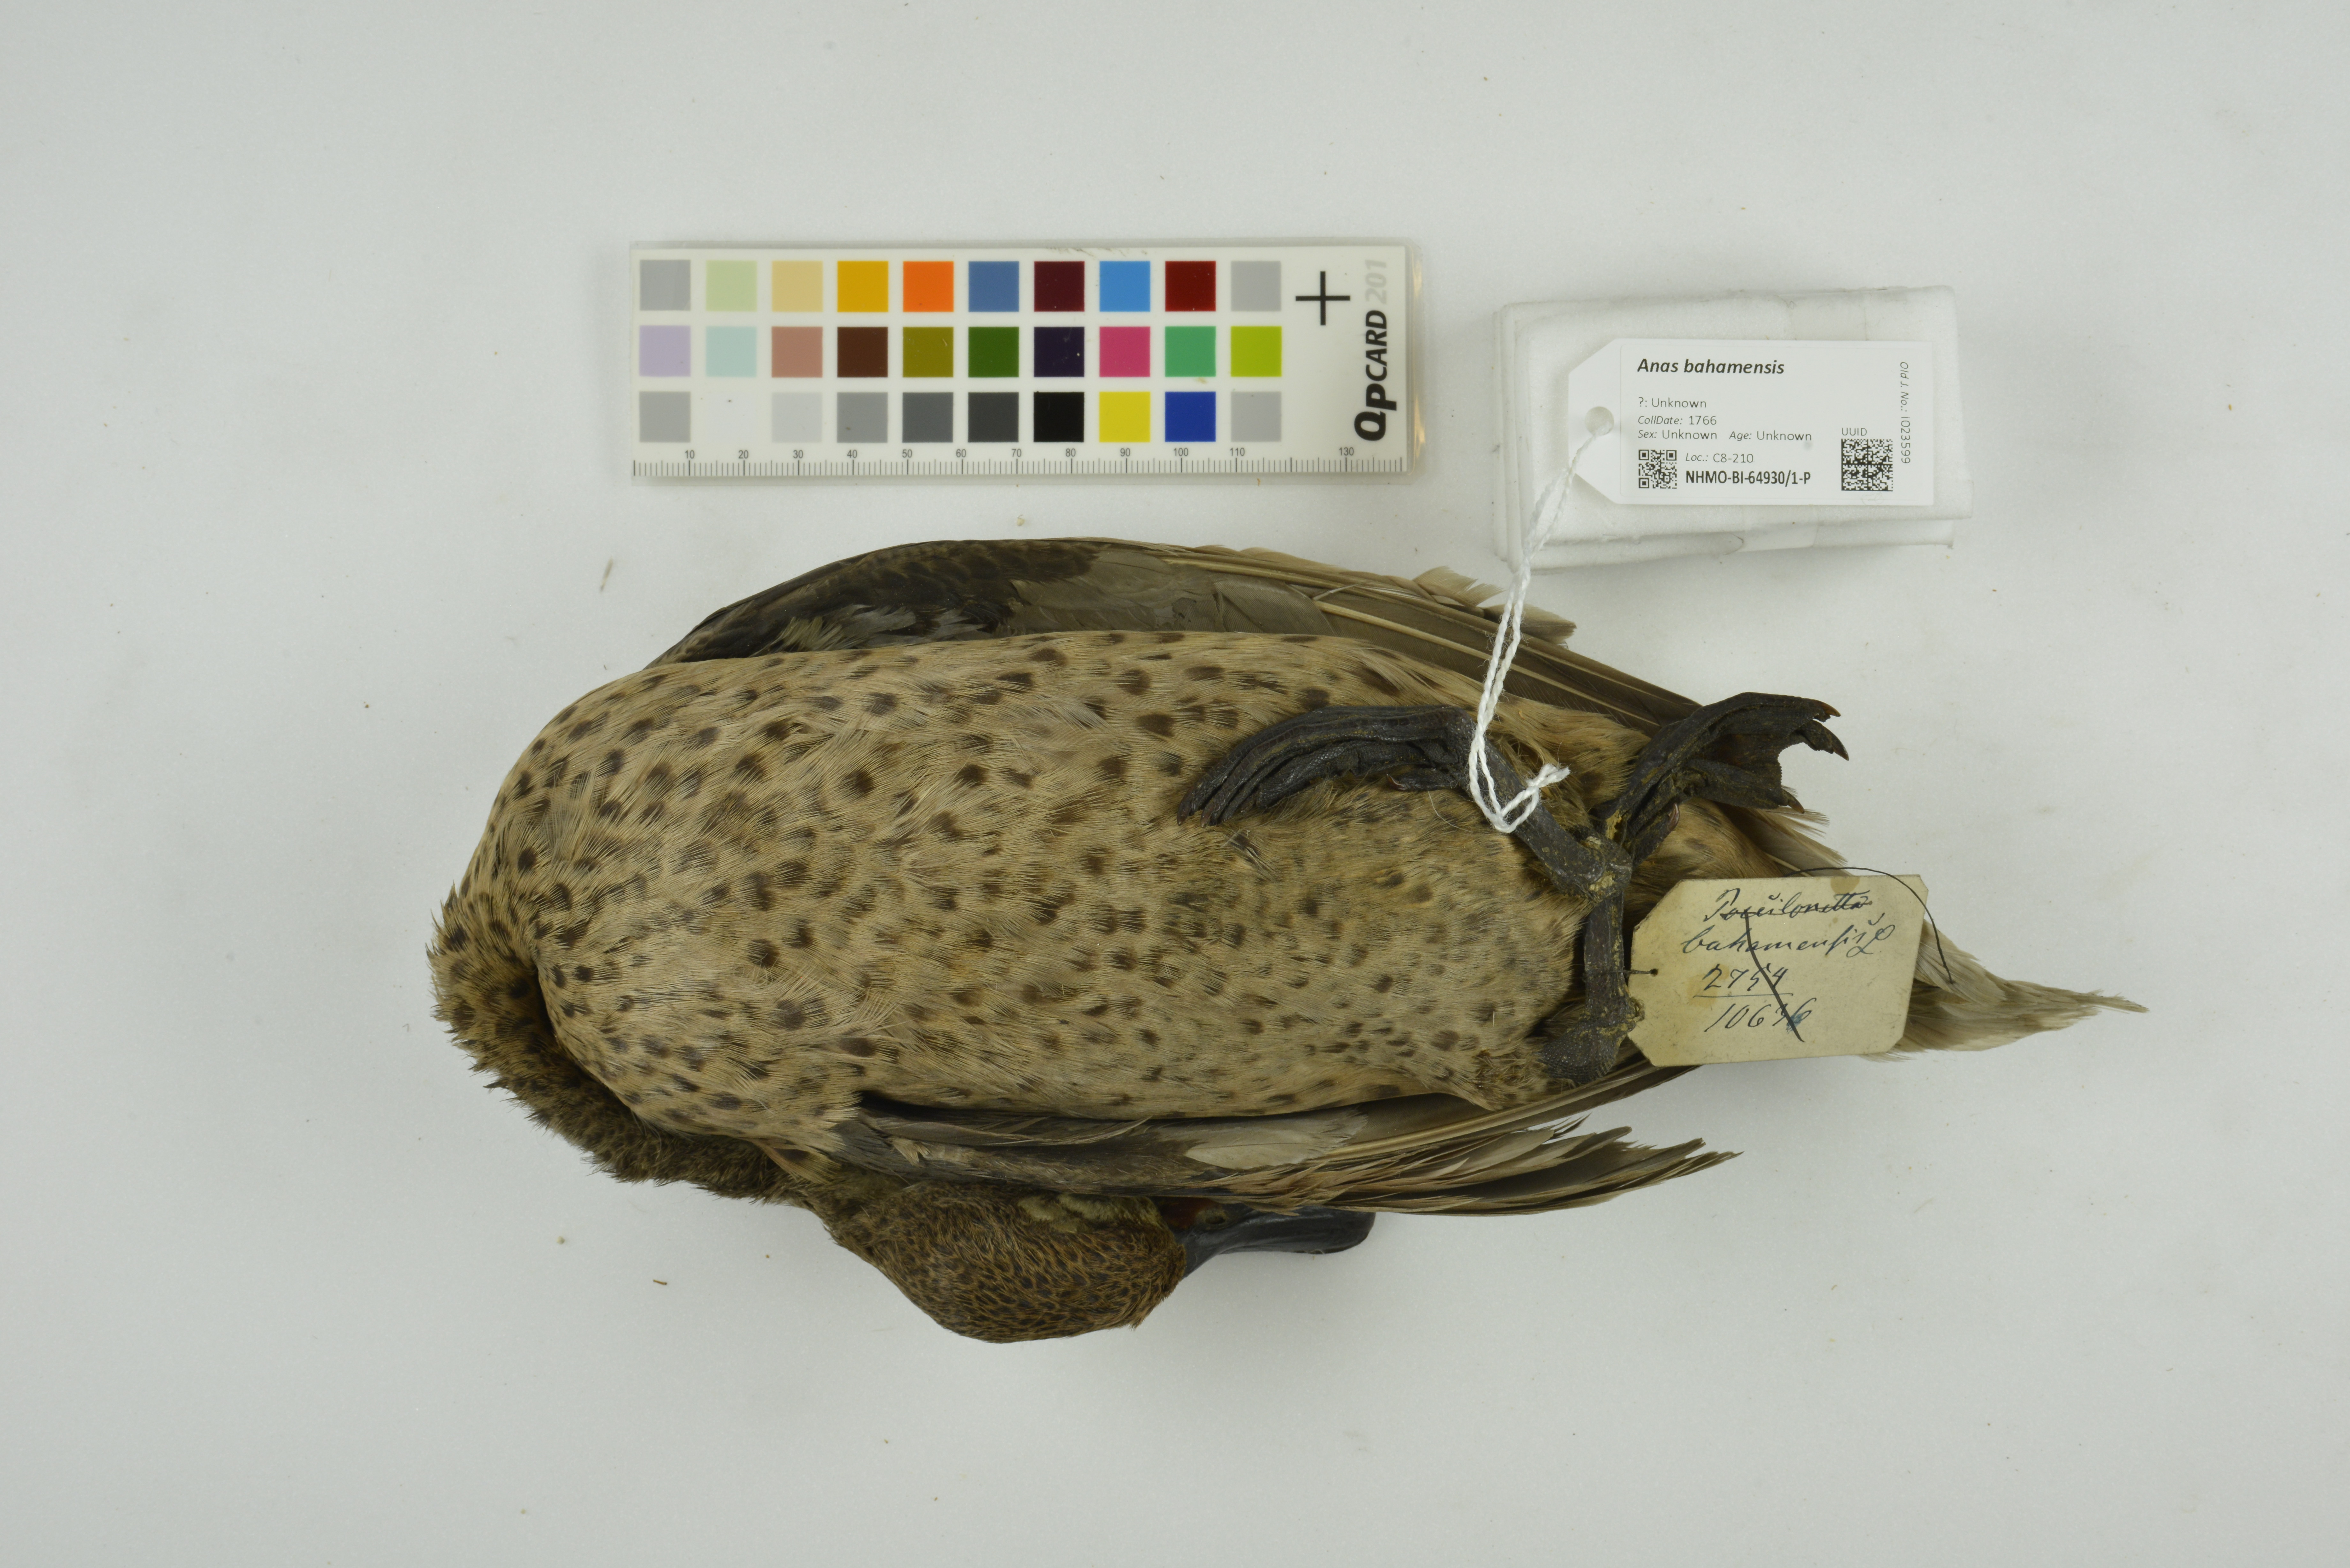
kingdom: Animalia
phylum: Chordata
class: Aves
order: Anseriformes
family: Anatidae
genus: Anas
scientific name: Anas bahamensis
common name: White-cheeked pintail
